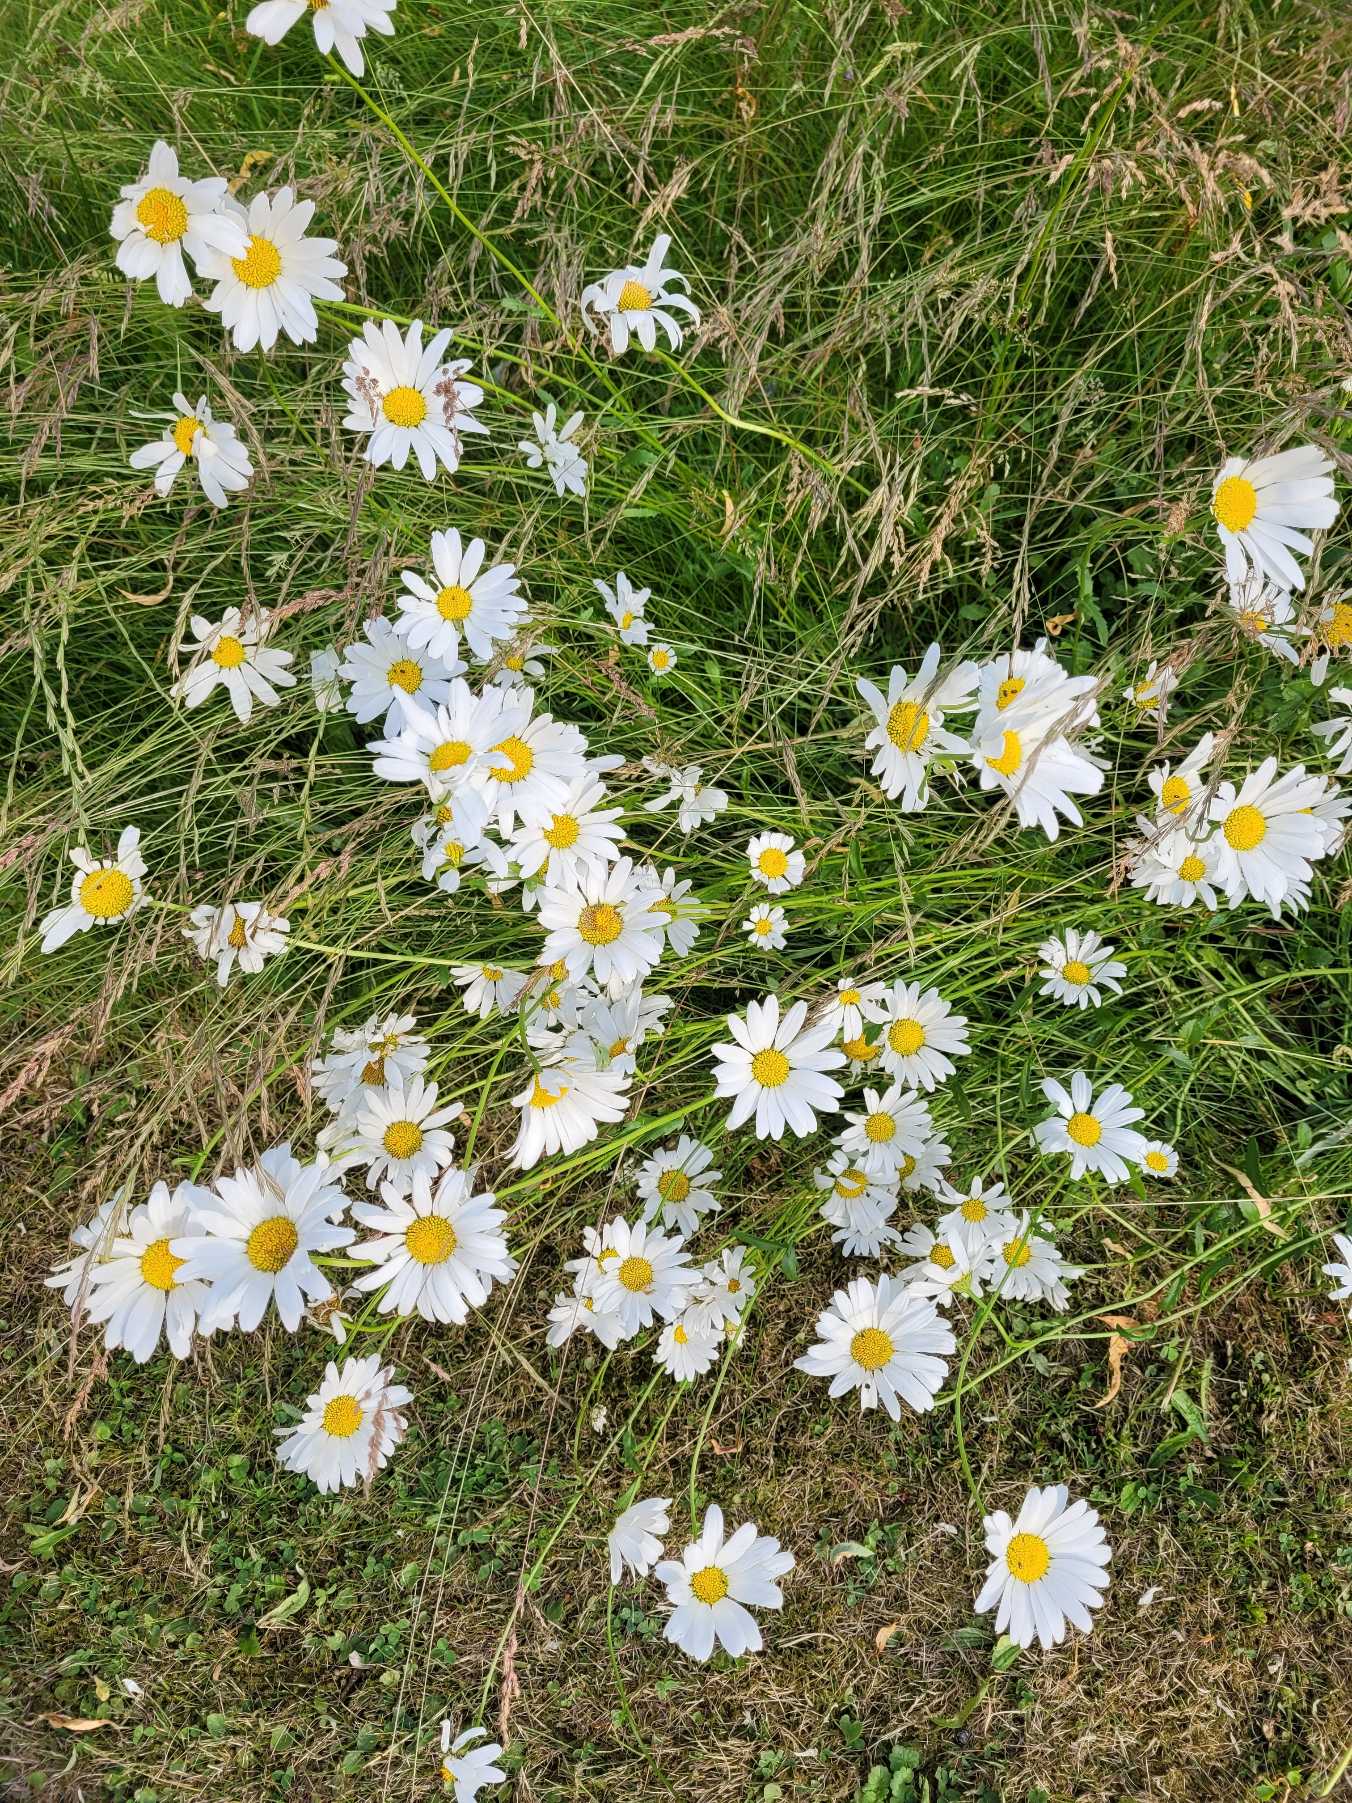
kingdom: Plantae
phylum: Tracheophyta
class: Magnoliopsida
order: Asterales
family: Asteraceae
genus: Leucanthemum
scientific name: Leucanthemum vulgare
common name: Hvid okseøje
